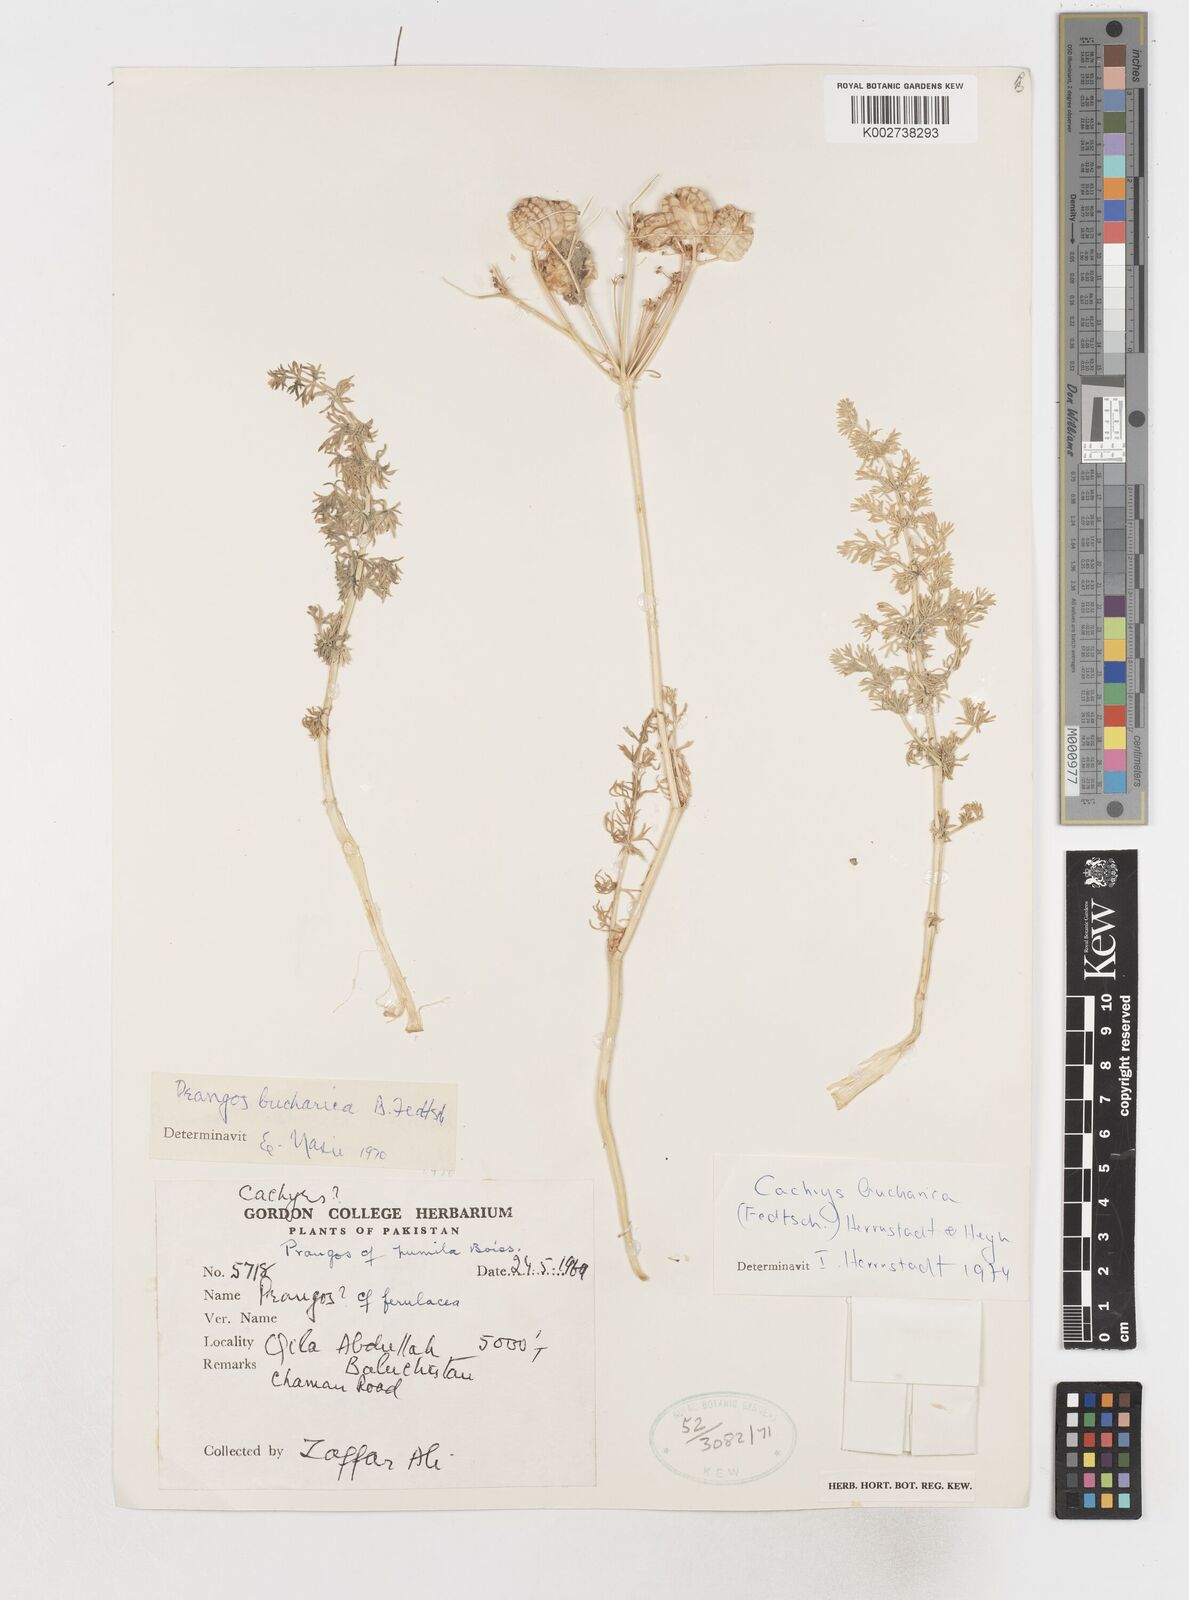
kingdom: Plantae
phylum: Tracheophyta
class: Magnoliopsida
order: Apiales
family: Apiaceae
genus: Prangos
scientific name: Prangos bucharica
